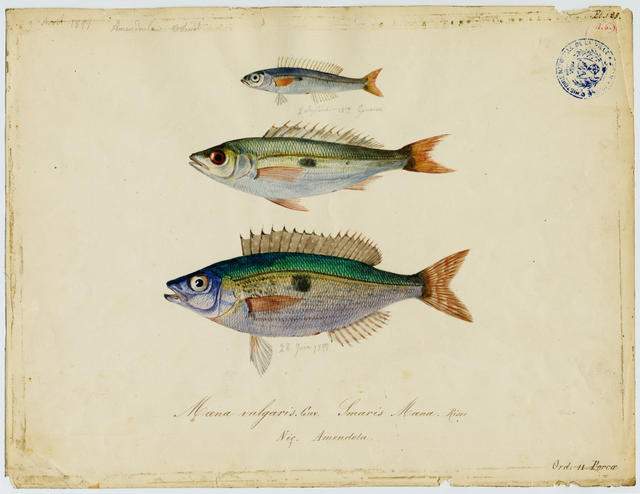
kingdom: Animalia
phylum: Chordata
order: Perciformes
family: Sparidae
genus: Spicara
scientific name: Spicara maena
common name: Blotched picarel
